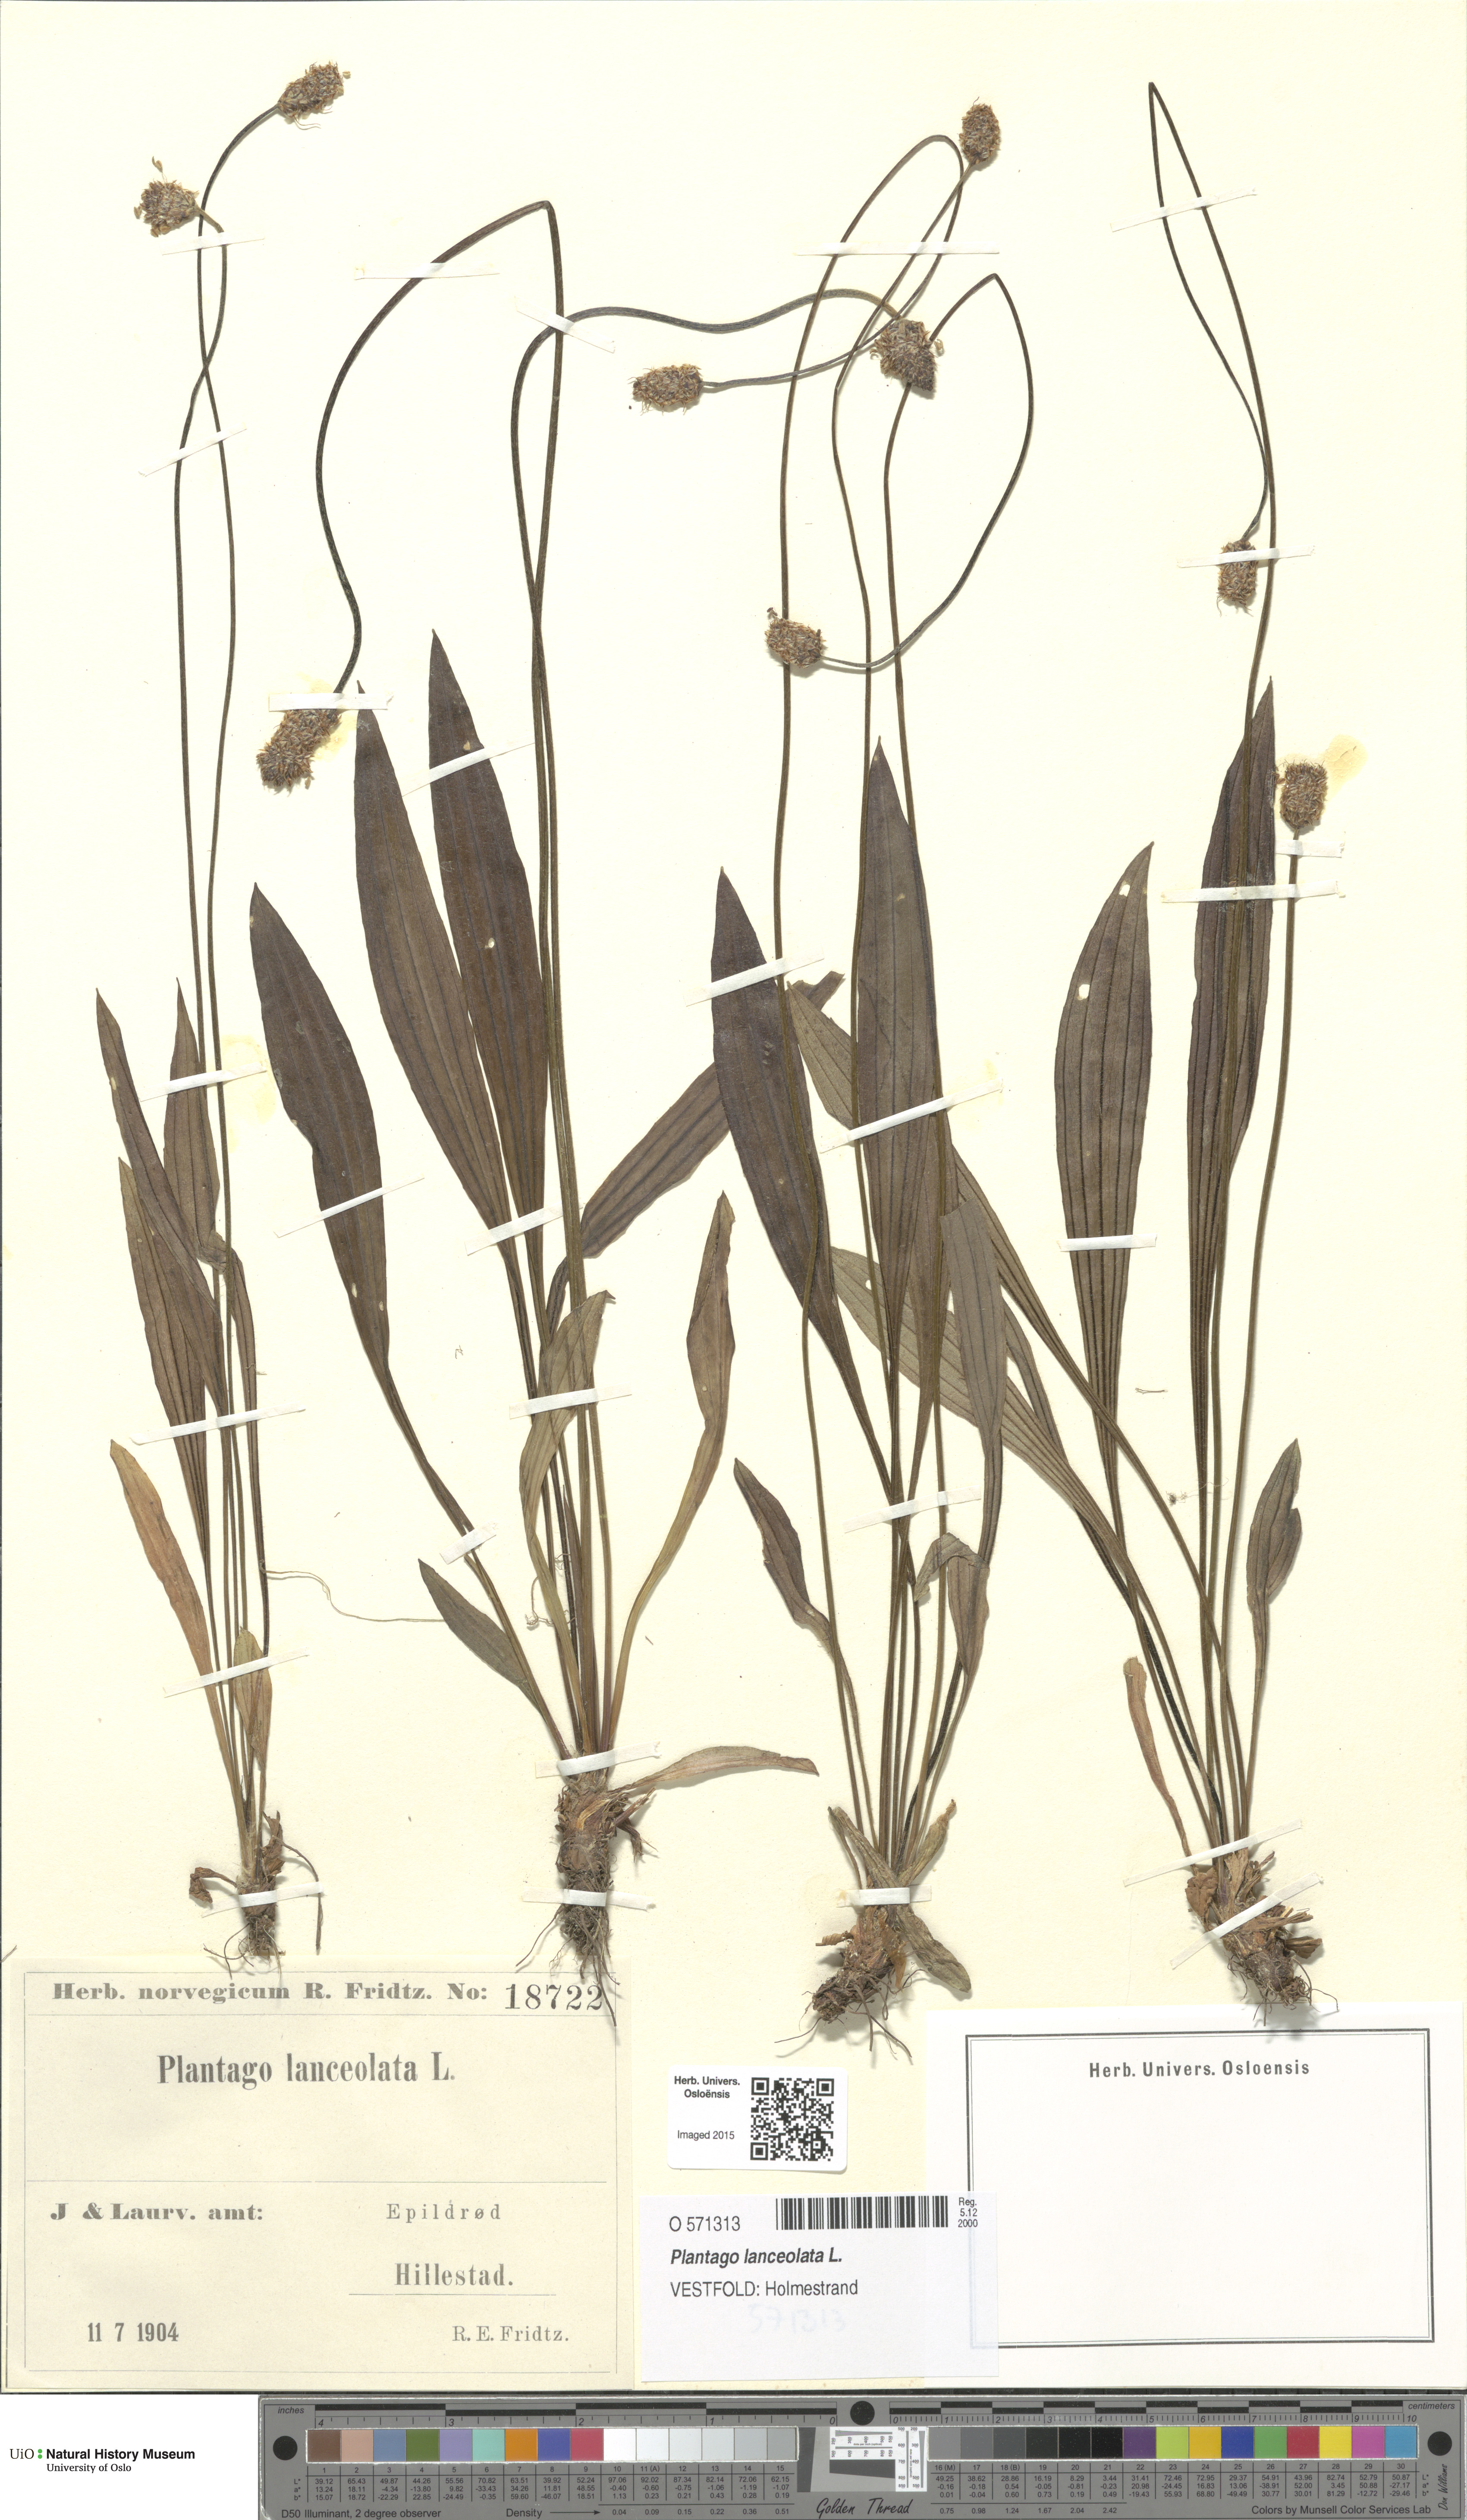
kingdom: Plantae
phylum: Tracheophyta
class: Magnoliopsida
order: Lamiales
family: Plantaginaceae
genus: Plantago
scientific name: Plantago lanceolata
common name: Ribwort plantain
